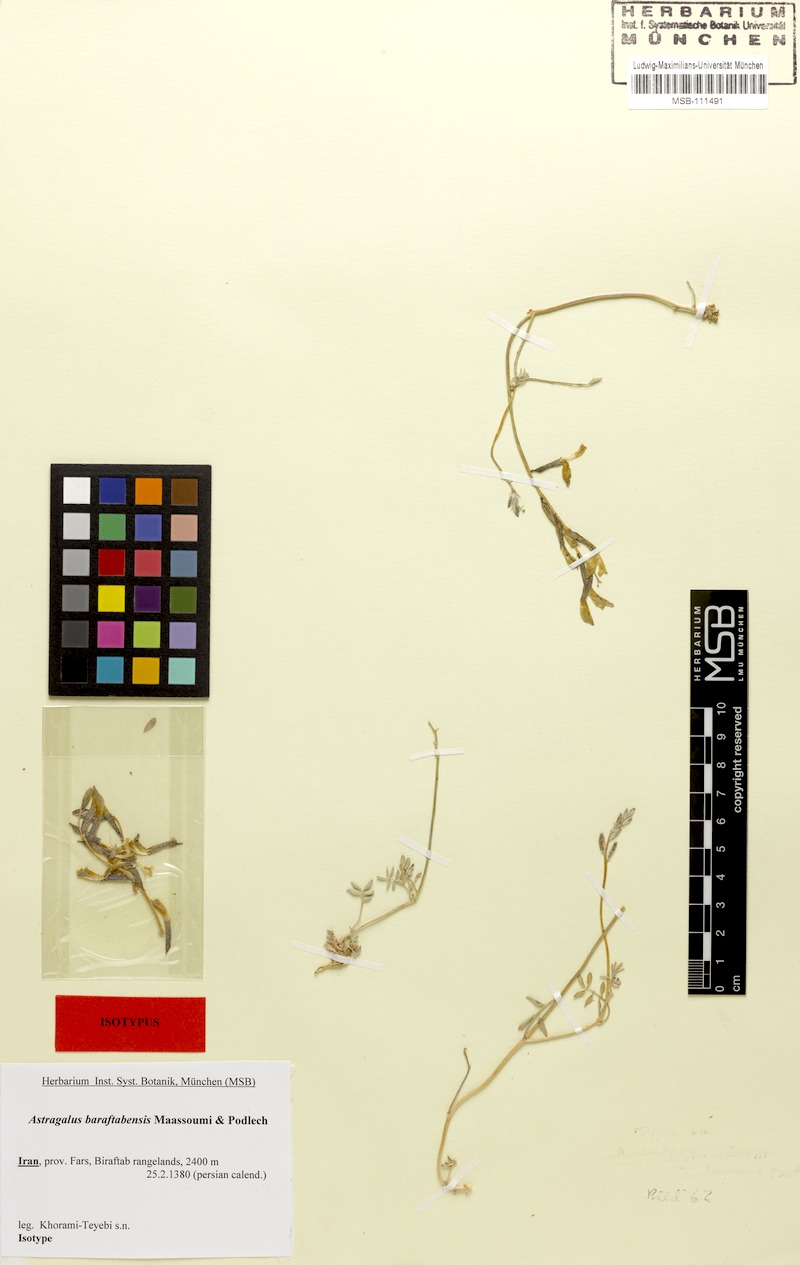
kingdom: Plantae
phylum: Tracheophyta
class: Magnoliopsida
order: Fabales
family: Fabaceae
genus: Astragalus
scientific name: Astragalus baraftabensis
